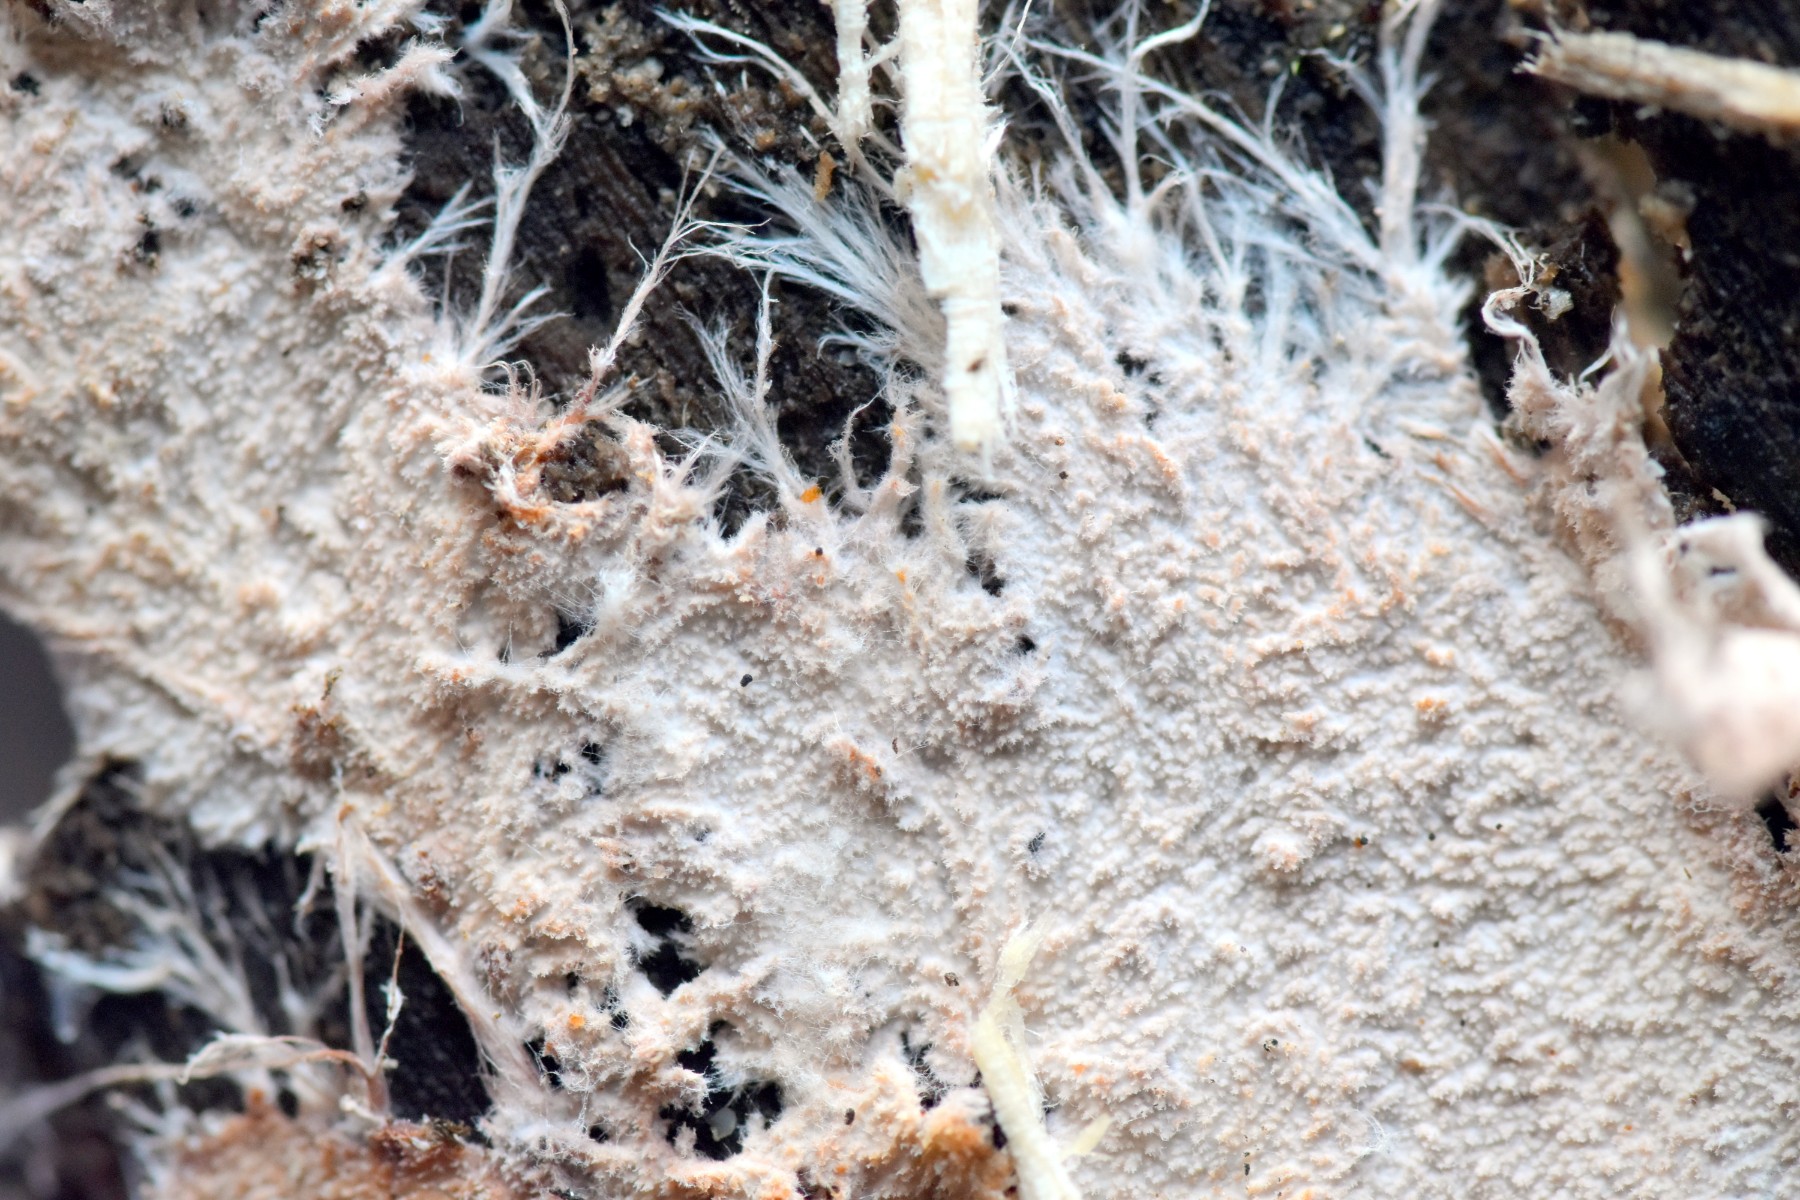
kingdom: Fungi
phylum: Basidiomycota
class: Agaricomycetes
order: Polyporales
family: Steccherinaceae
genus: Steccherinum
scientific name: Steccherinum fimbriatum
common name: trådet skønpig
